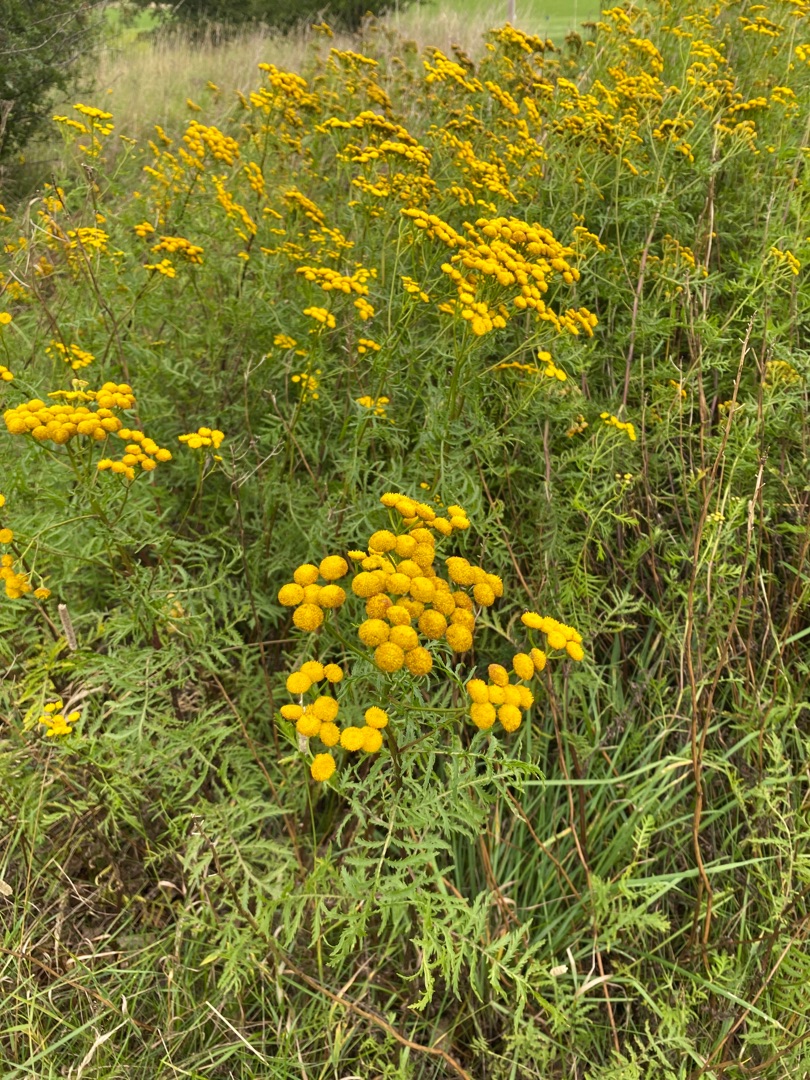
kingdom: Plantae
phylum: Tracheophyta
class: Magnoliopsida
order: Asterales
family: Asteraceae
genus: Tanacetum
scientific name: Tanacetum vulgare
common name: Rejnfan
